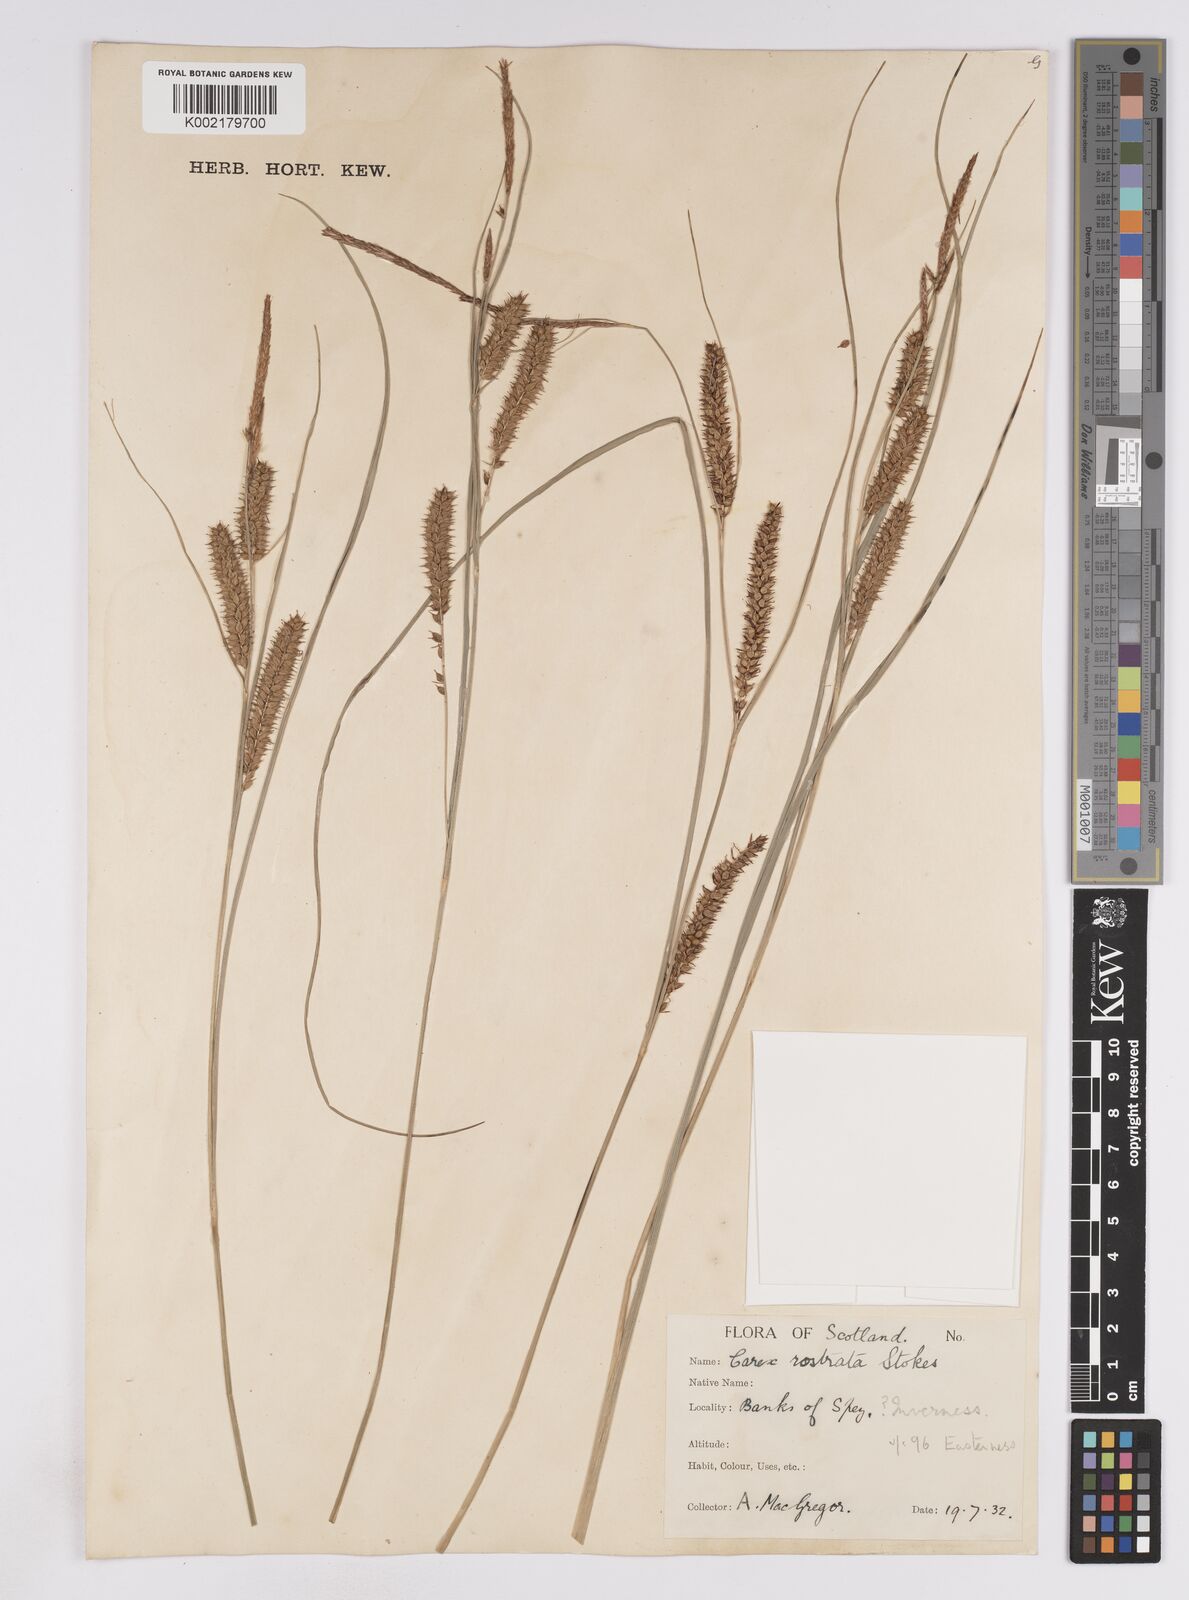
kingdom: Plantae
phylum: Tracheophyta
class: Liliopsida
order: Poales
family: Cyperaceae
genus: Carex
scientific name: Carex rostrata
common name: Bottle sedge
